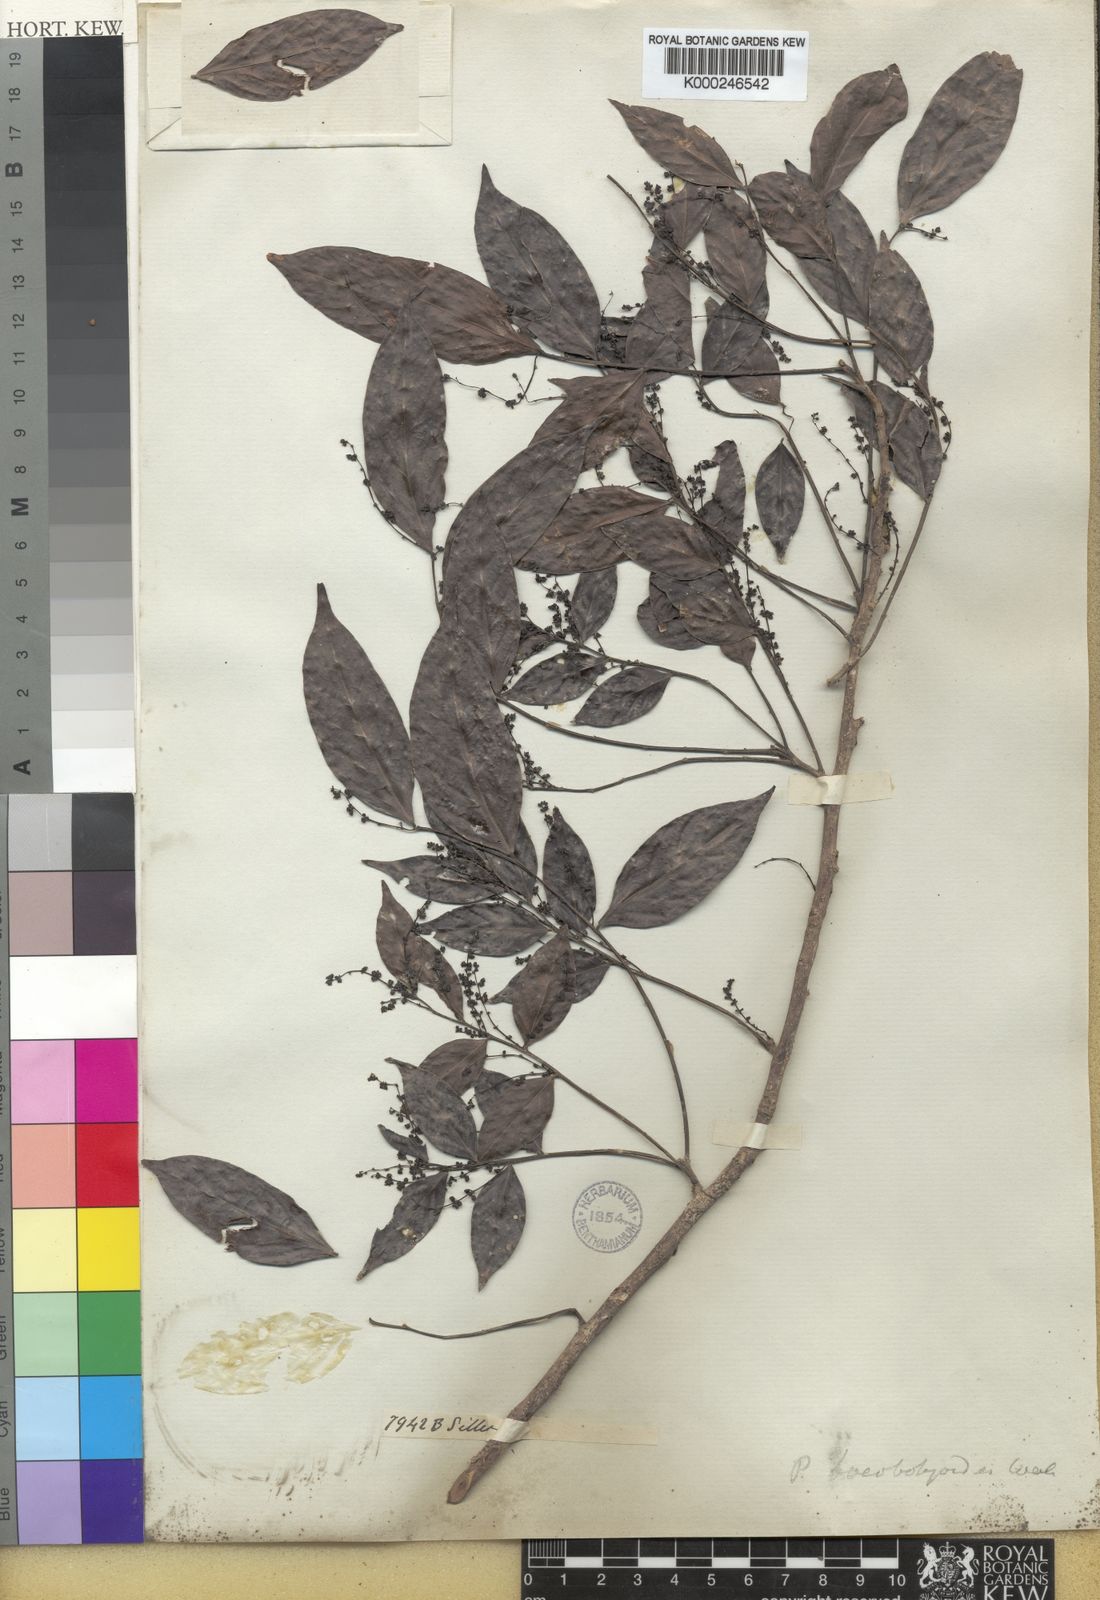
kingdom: Plantae
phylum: Tracheophyta
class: Magnoliopsida
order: Malpighiales
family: Phyllanthaceae
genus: Phyllanthus
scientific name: Phyllanthus
